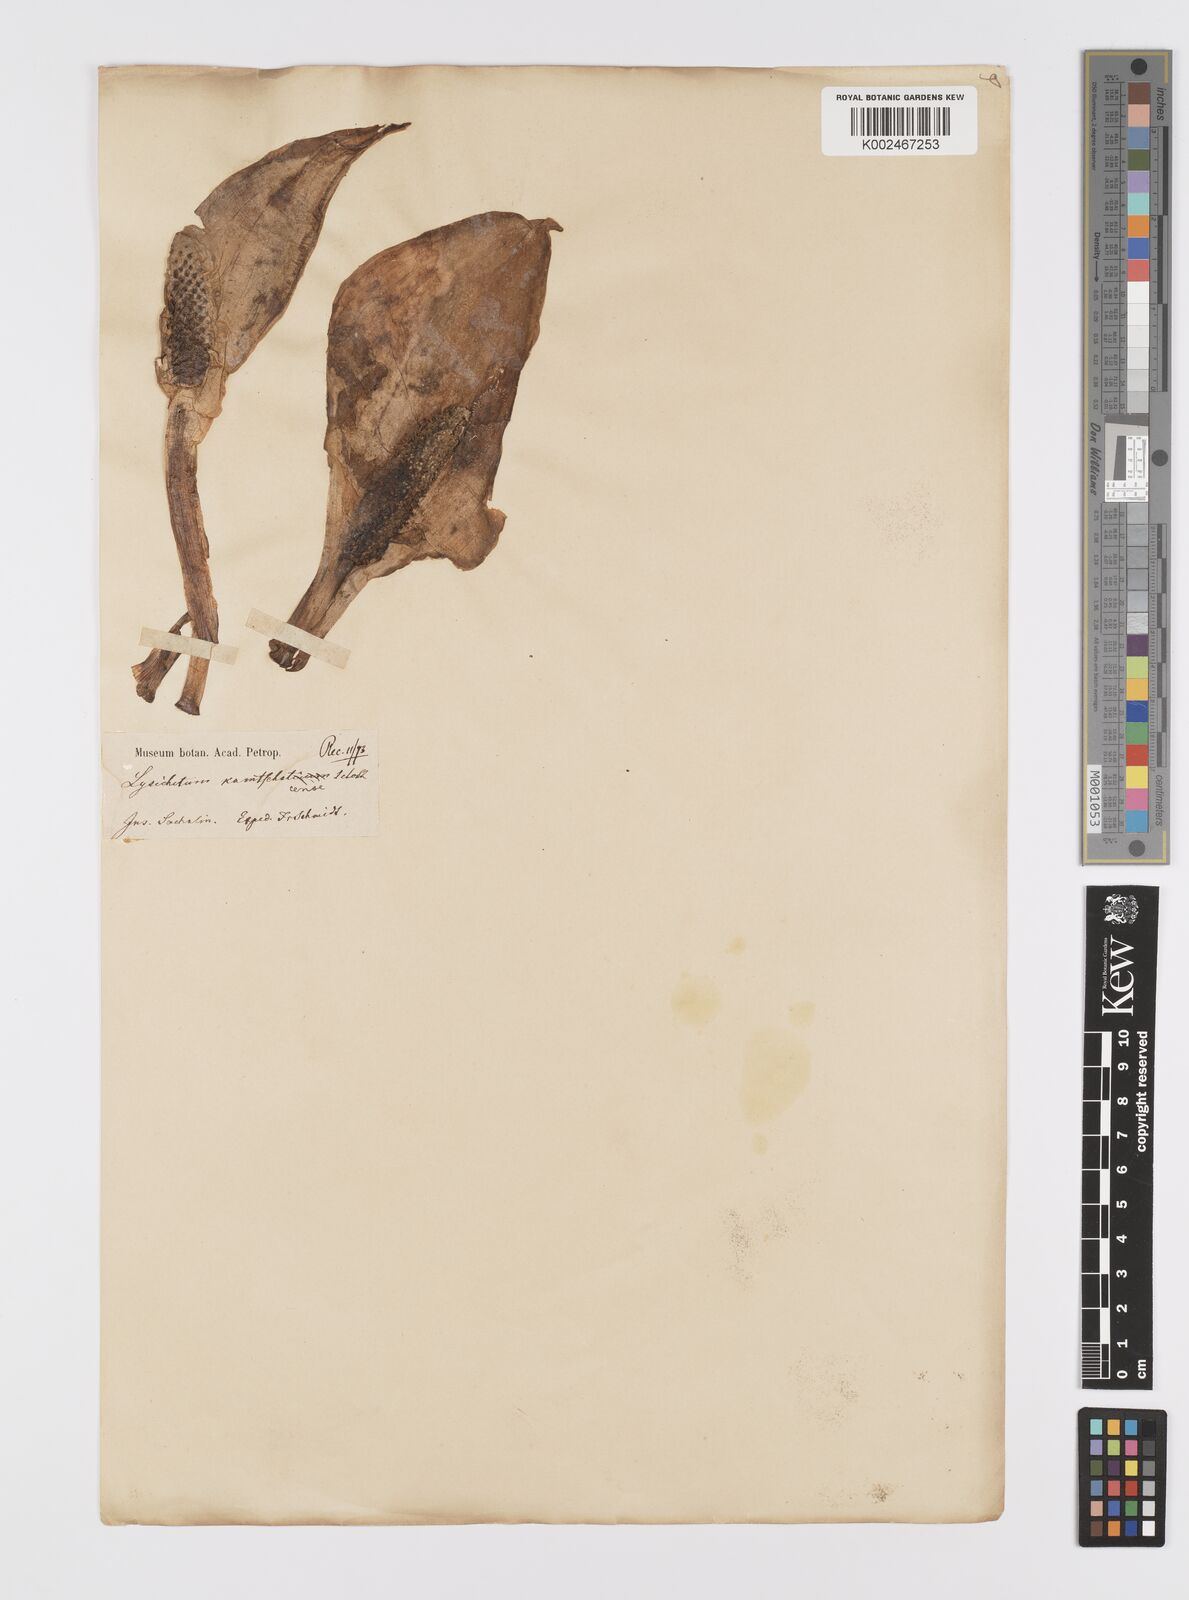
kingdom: Plantae
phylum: Tracheophyta
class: Liliopsida
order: Alismatales
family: Araceae
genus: Lysichiton
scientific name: Lysichiton camtschatcensis
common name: Asian skunk-cabbage
